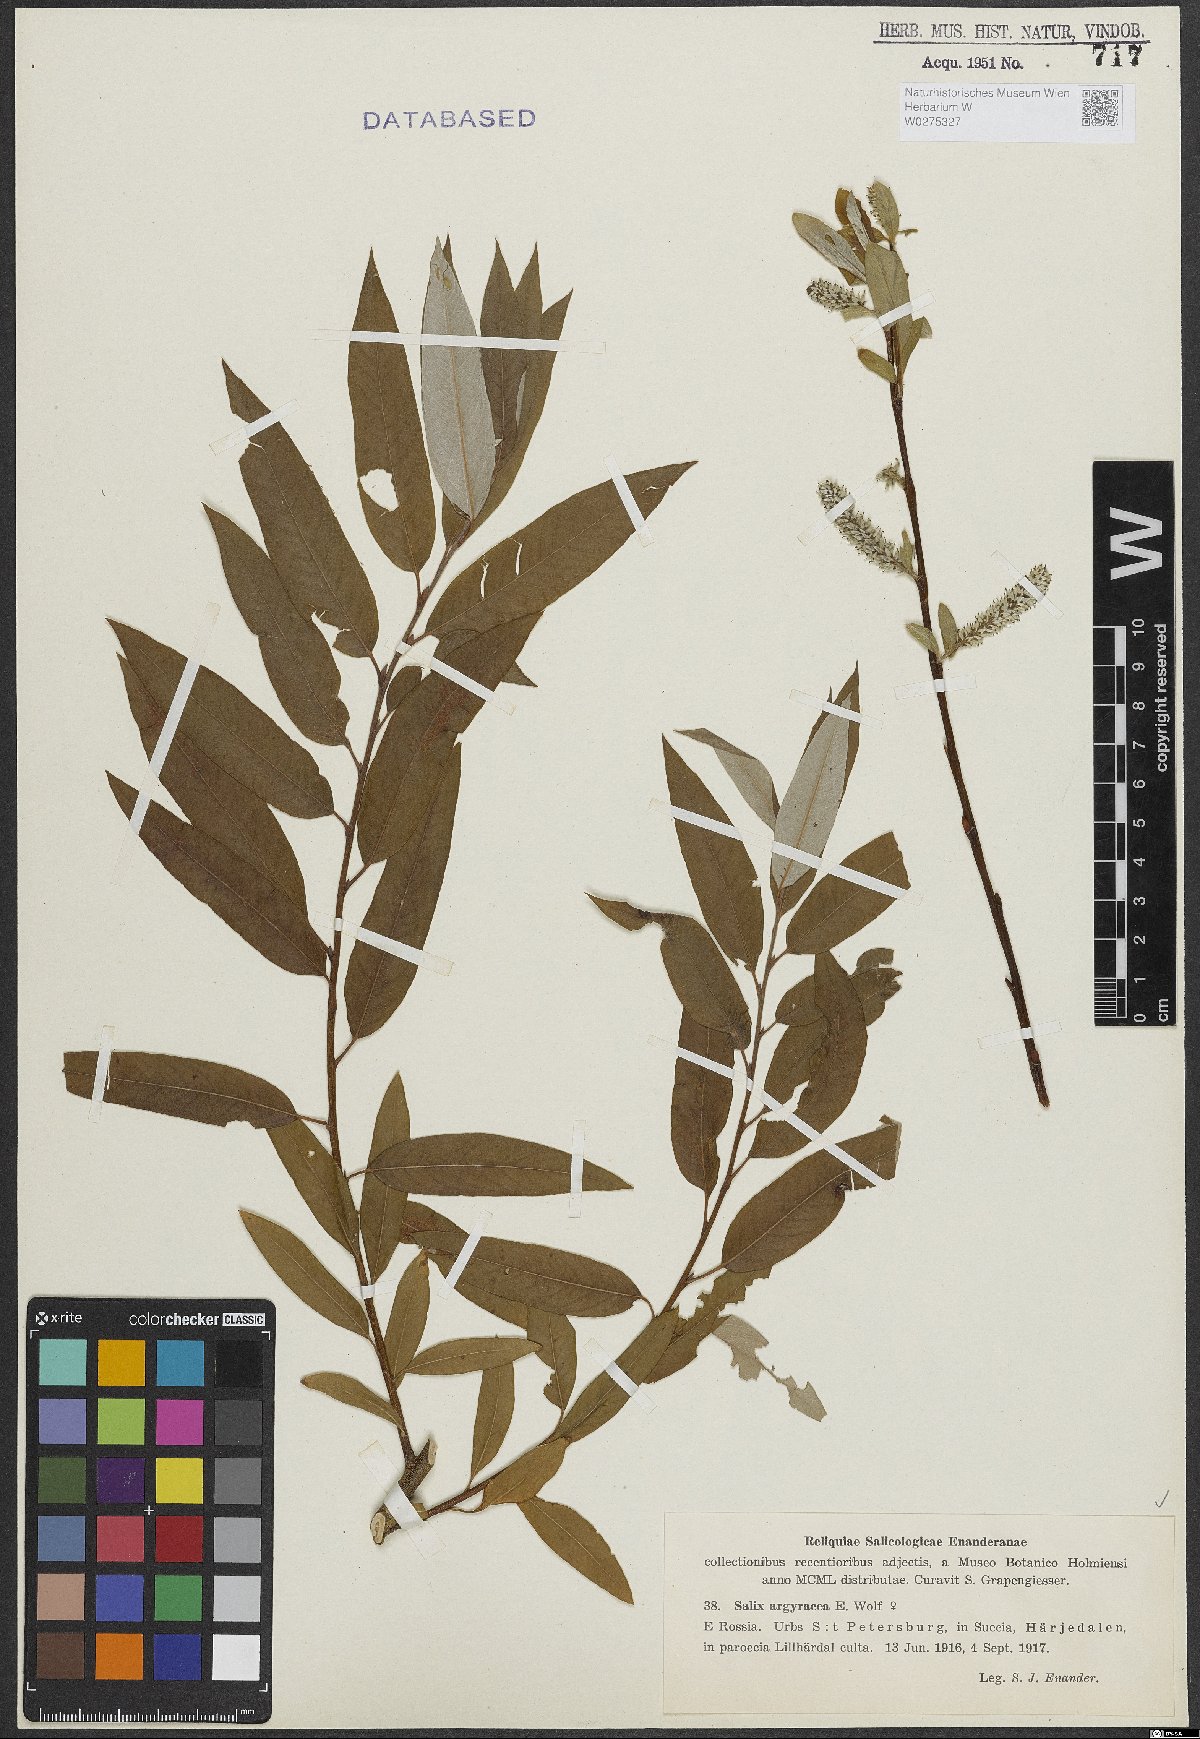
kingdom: Plantae
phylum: Tracheophyta
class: Magnoliopsida
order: Malpighiales
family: Salicaceae
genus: Salix
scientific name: Salix argyracea
